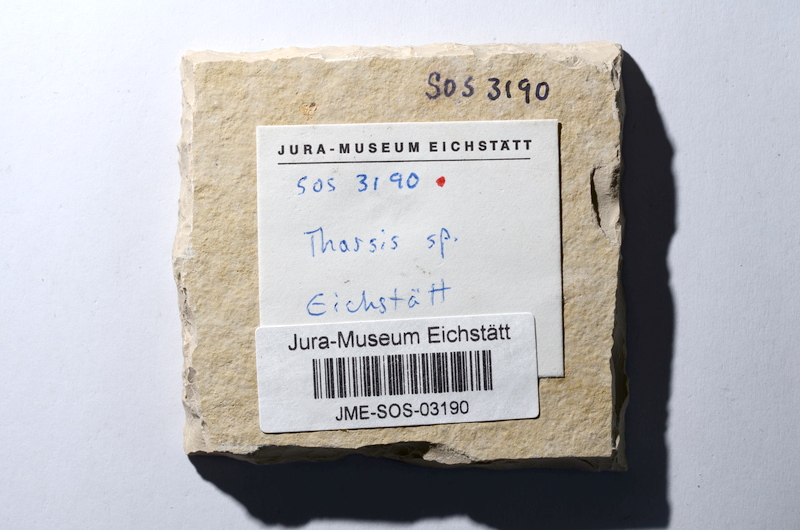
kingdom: Animalia
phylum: Chordata
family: Ascalaboidae
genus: Tharsis
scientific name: Tharsis dubius
